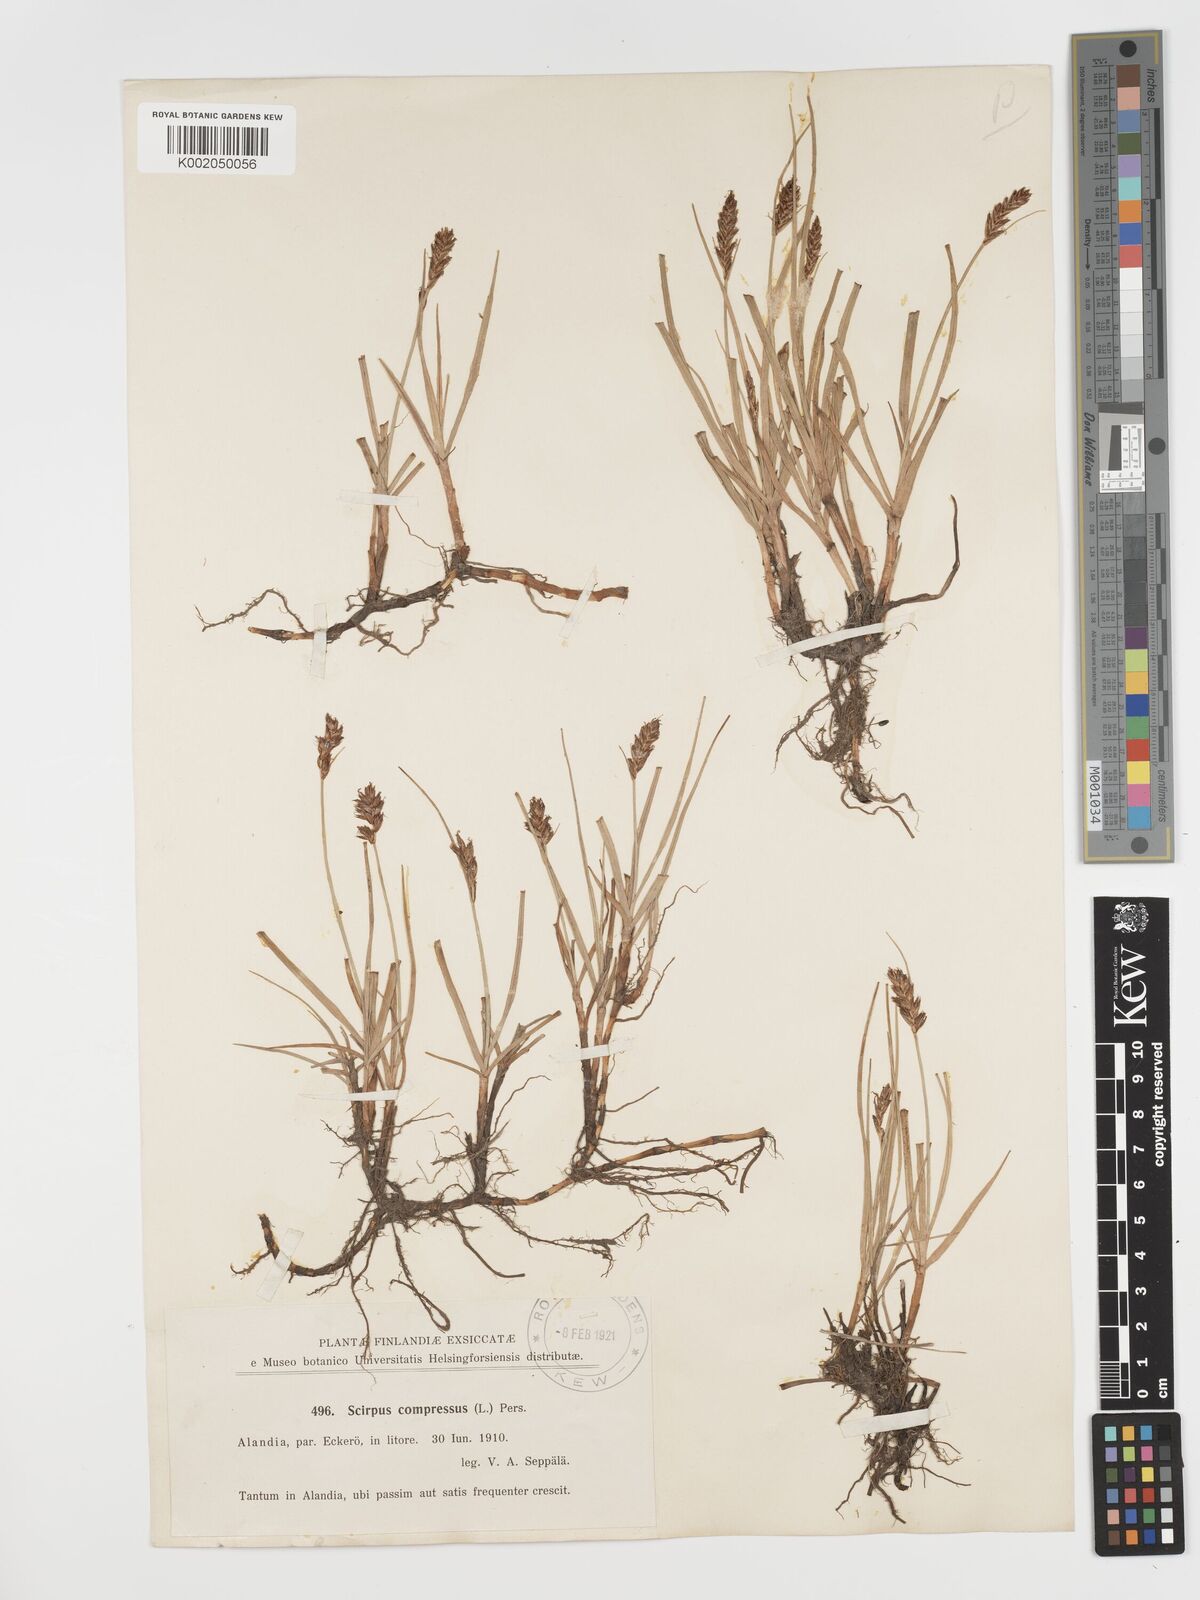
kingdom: Plantae
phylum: Tracheophyta
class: Liliopsida
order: Poales
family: Cyperaceae
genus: Blysmus
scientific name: Blysmus compressus
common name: Flat-sedge
